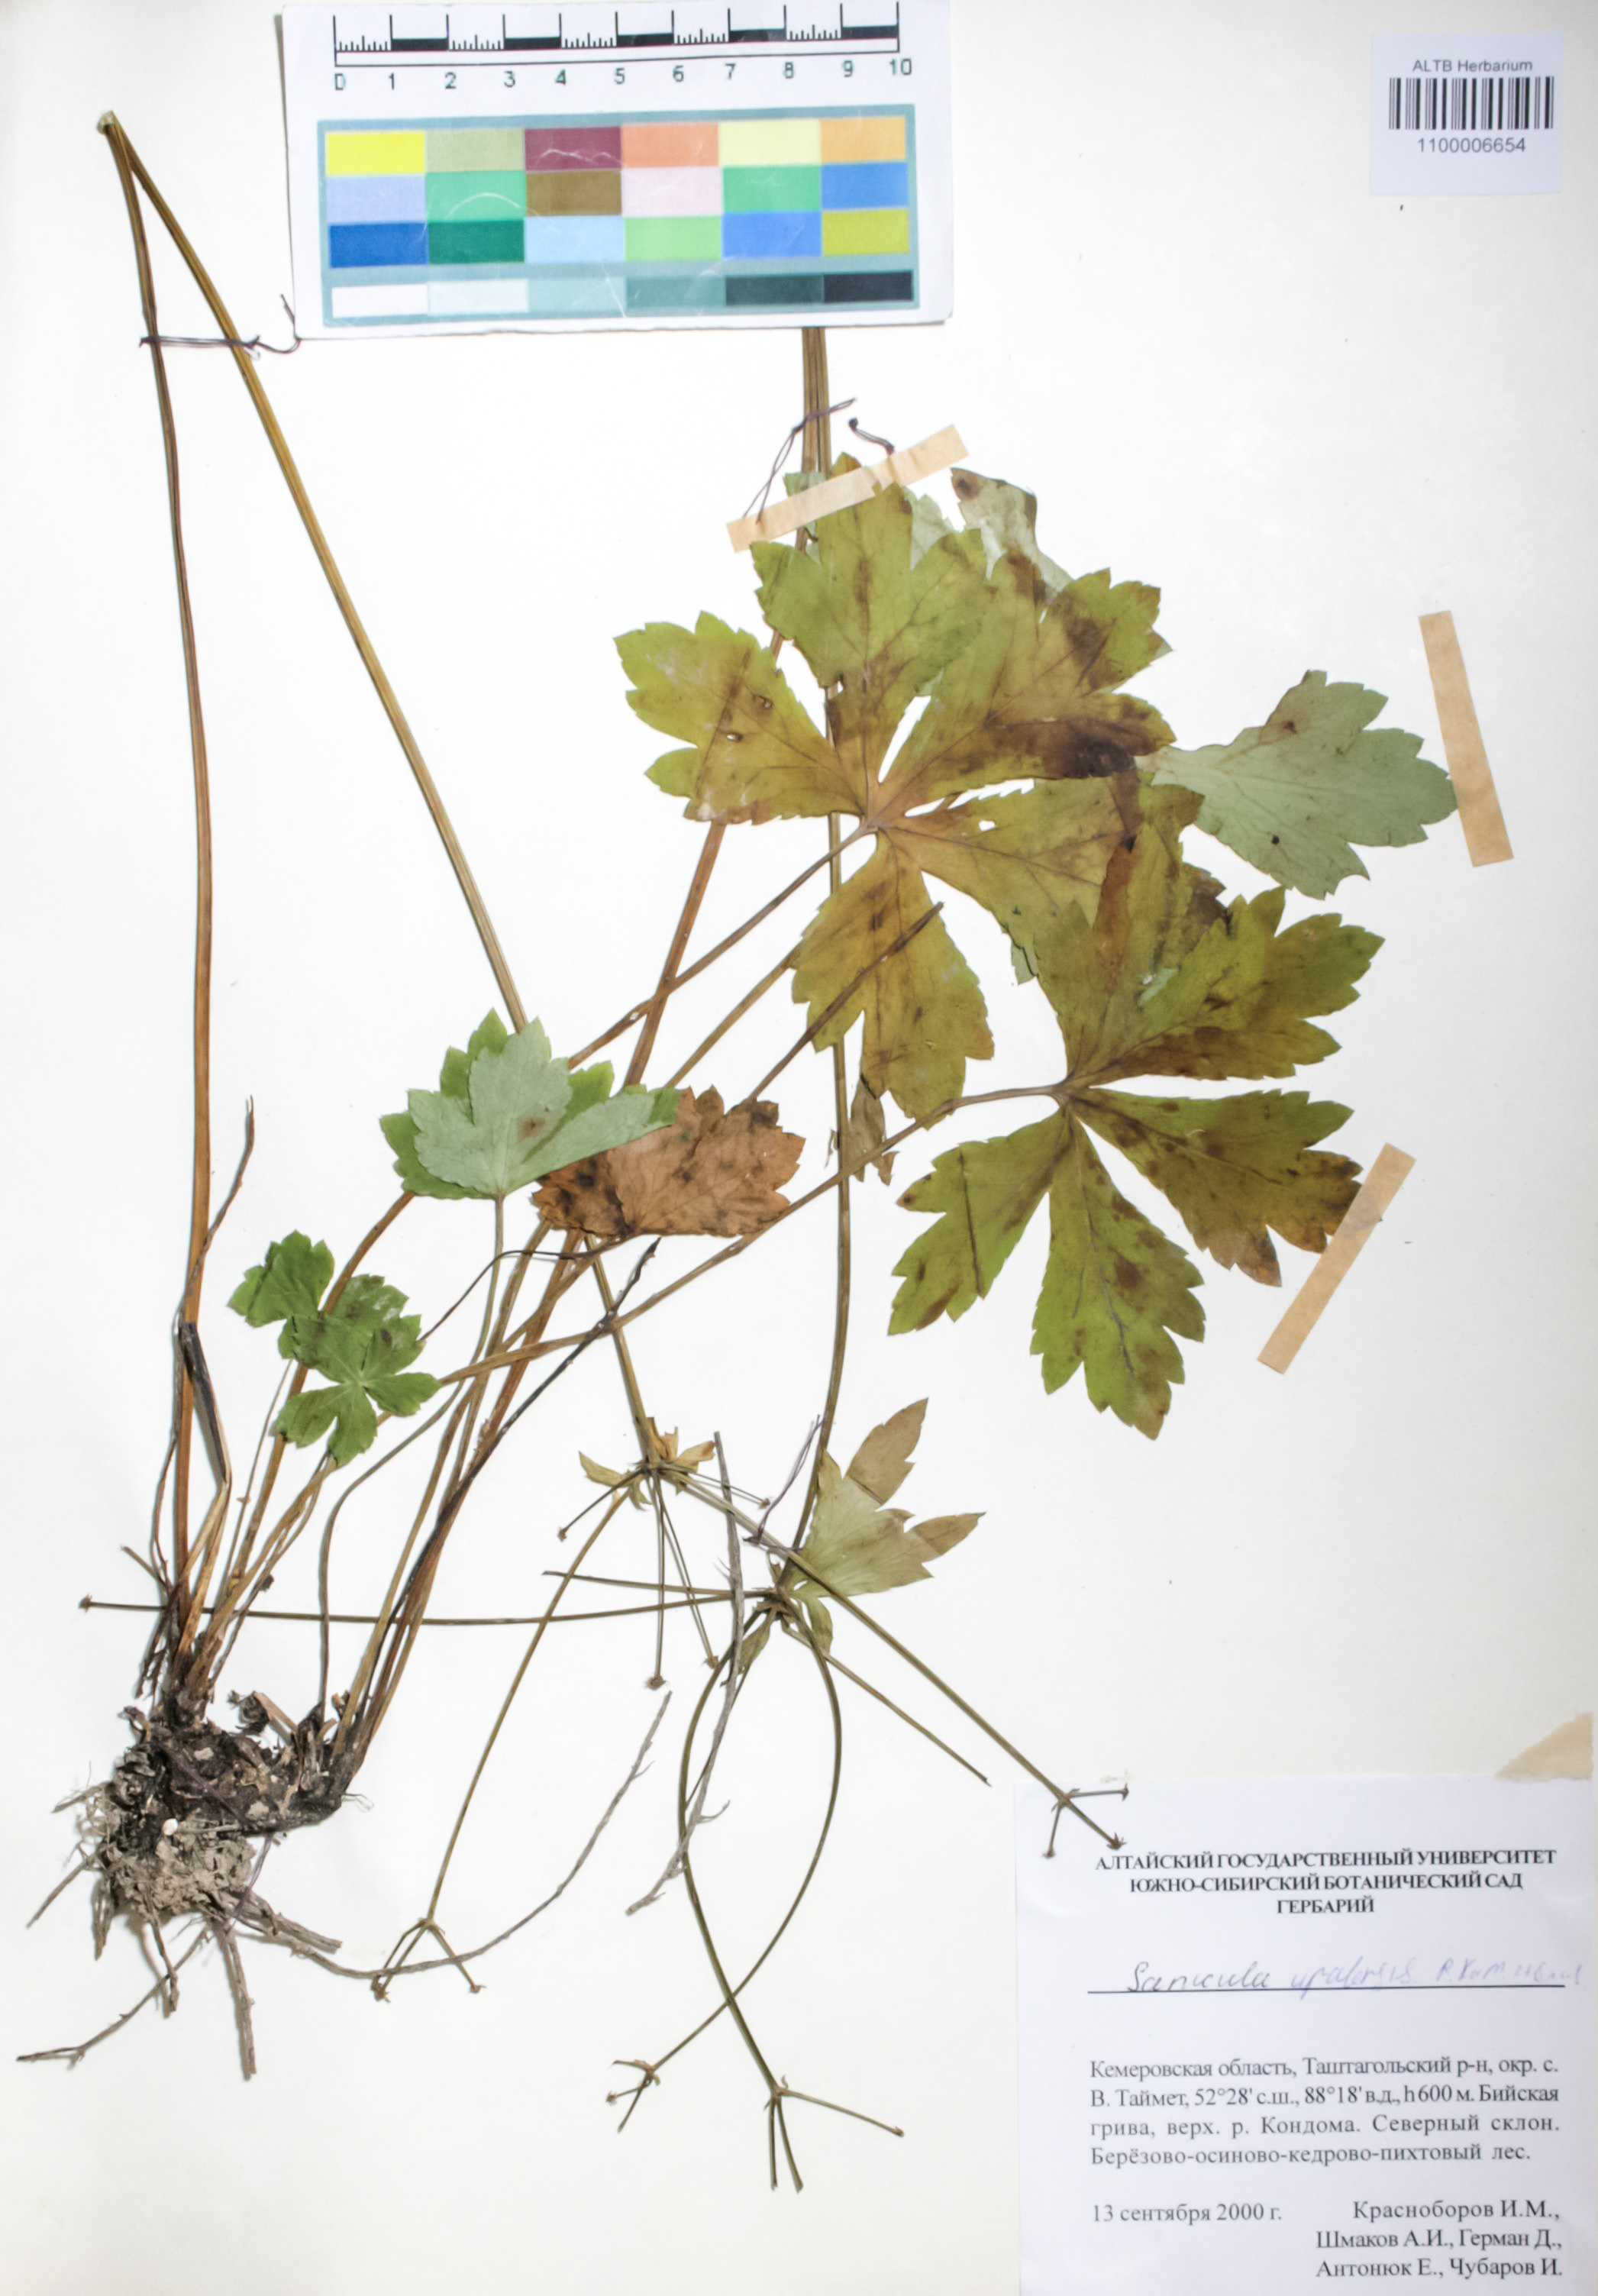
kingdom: Plantae
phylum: Tracheophyta
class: Magnoliopsida
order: Apiales
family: Apiaceae
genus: Sanicula
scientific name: Sanicula giraldii
